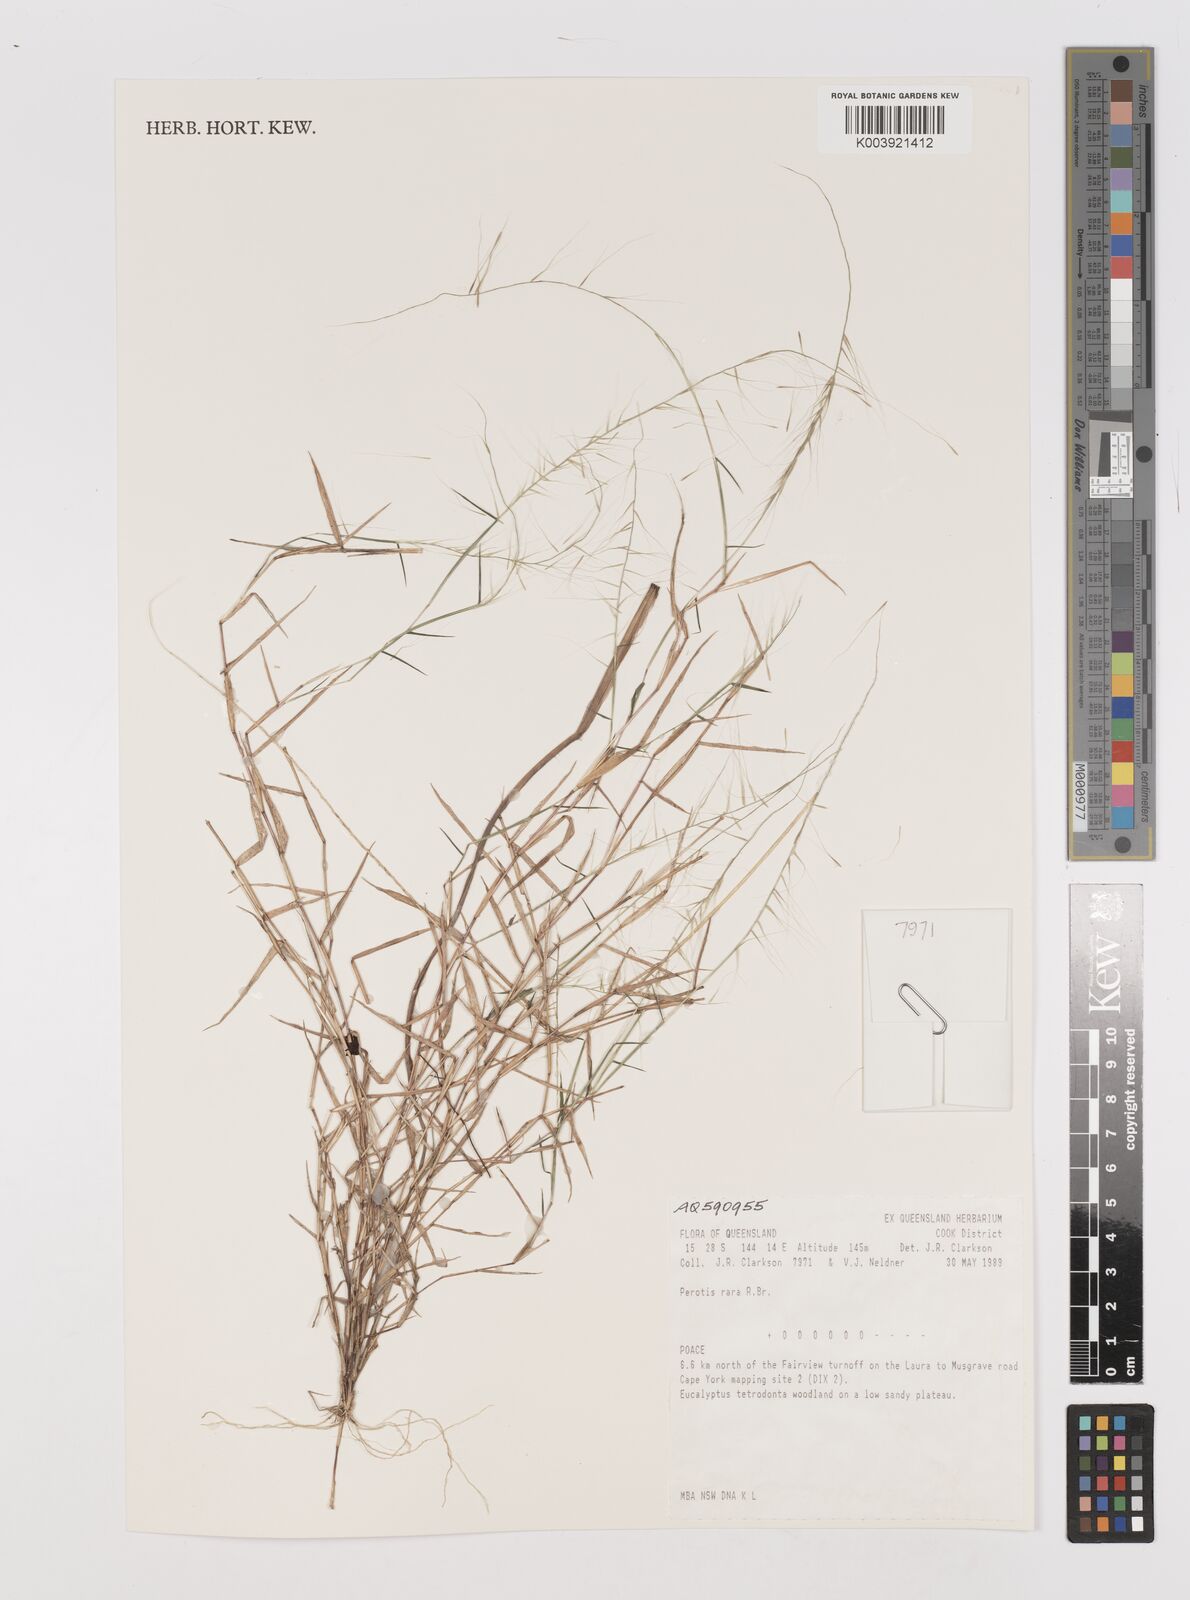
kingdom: Plantae
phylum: Tracheophyta
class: Liliopsida
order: Poales
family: Poaceae
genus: Perotis
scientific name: Perotis rara
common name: Comet grass
